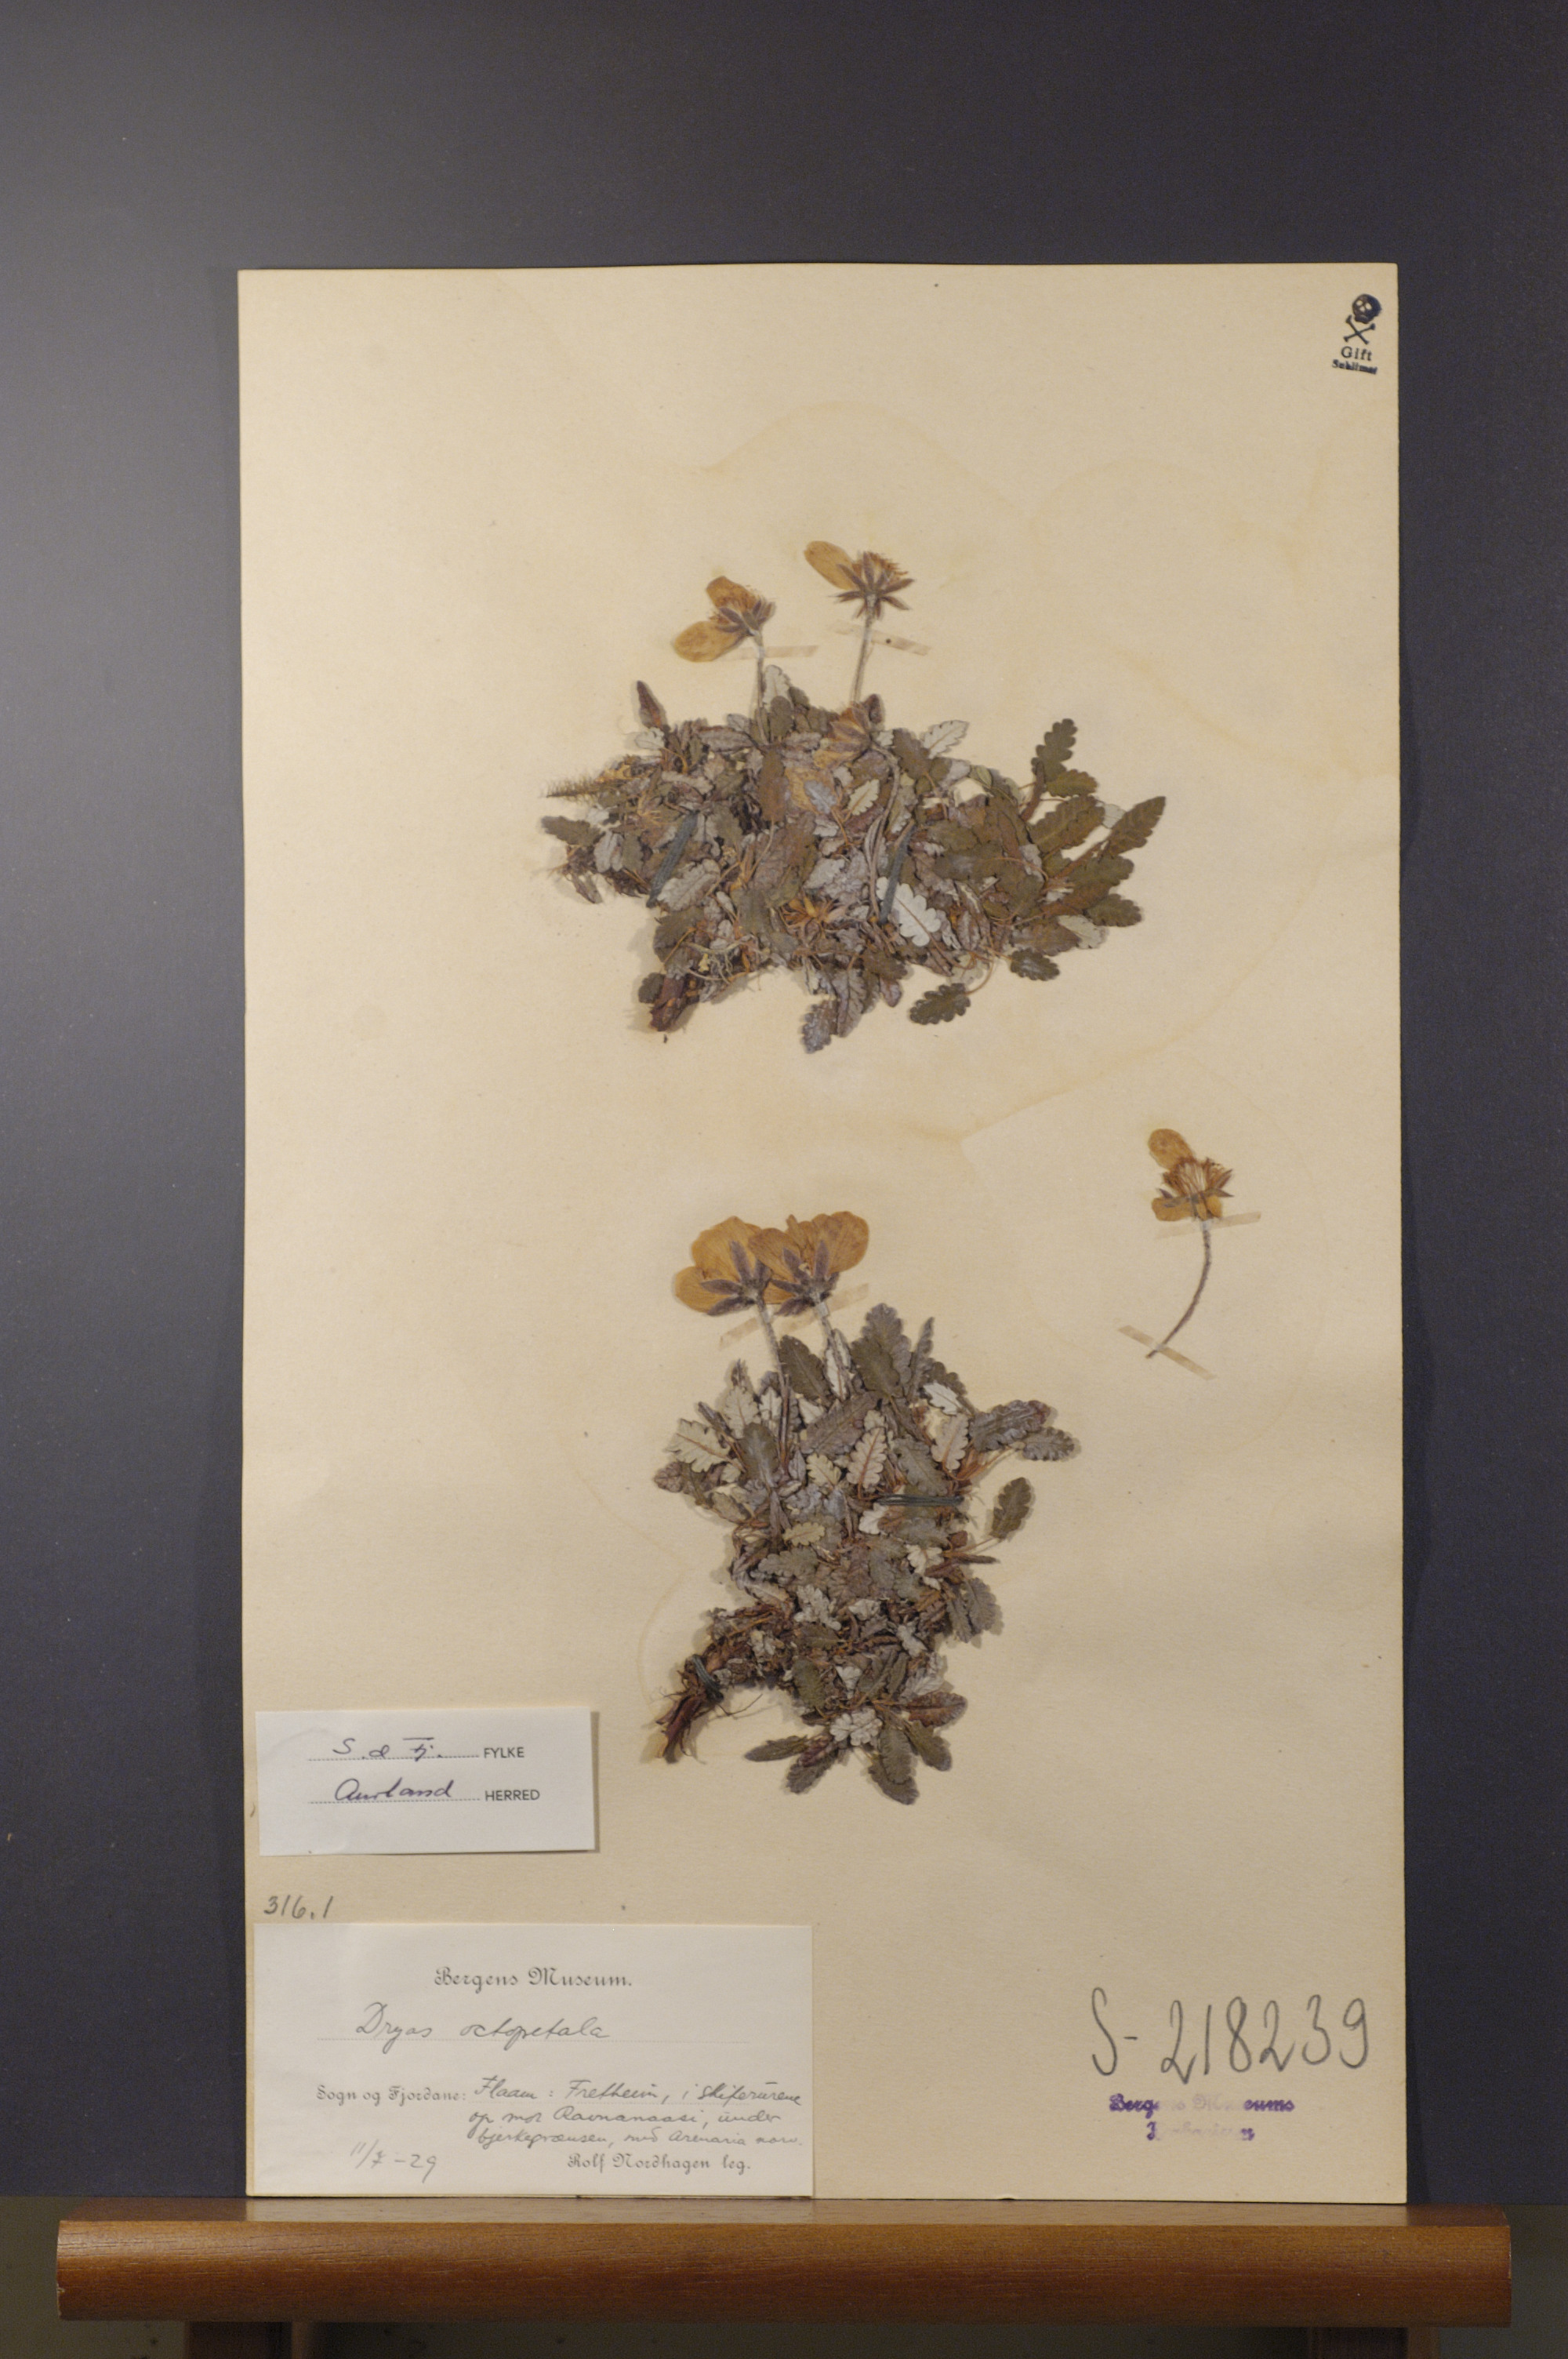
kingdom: Plantae
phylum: Tracheophyta
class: Magnoliopsida
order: Rosales
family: Rosaceae
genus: Dryas
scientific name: Dryas octopetala
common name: Eight-petal mountain-avens
